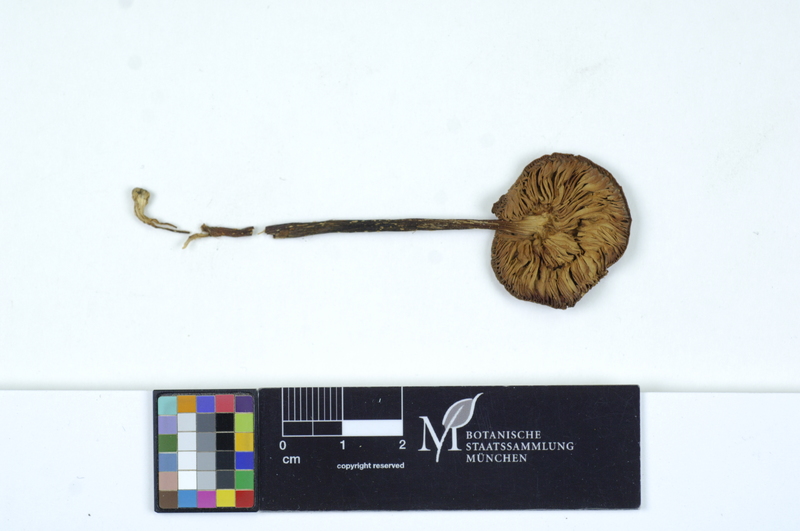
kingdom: Fungi
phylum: Basidiomycota
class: Agaricomycetes
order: Agaricales
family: Tricholomataceae
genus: Melanoleuca
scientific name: Melanoleuca melaleuca
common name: Bald cavalier
